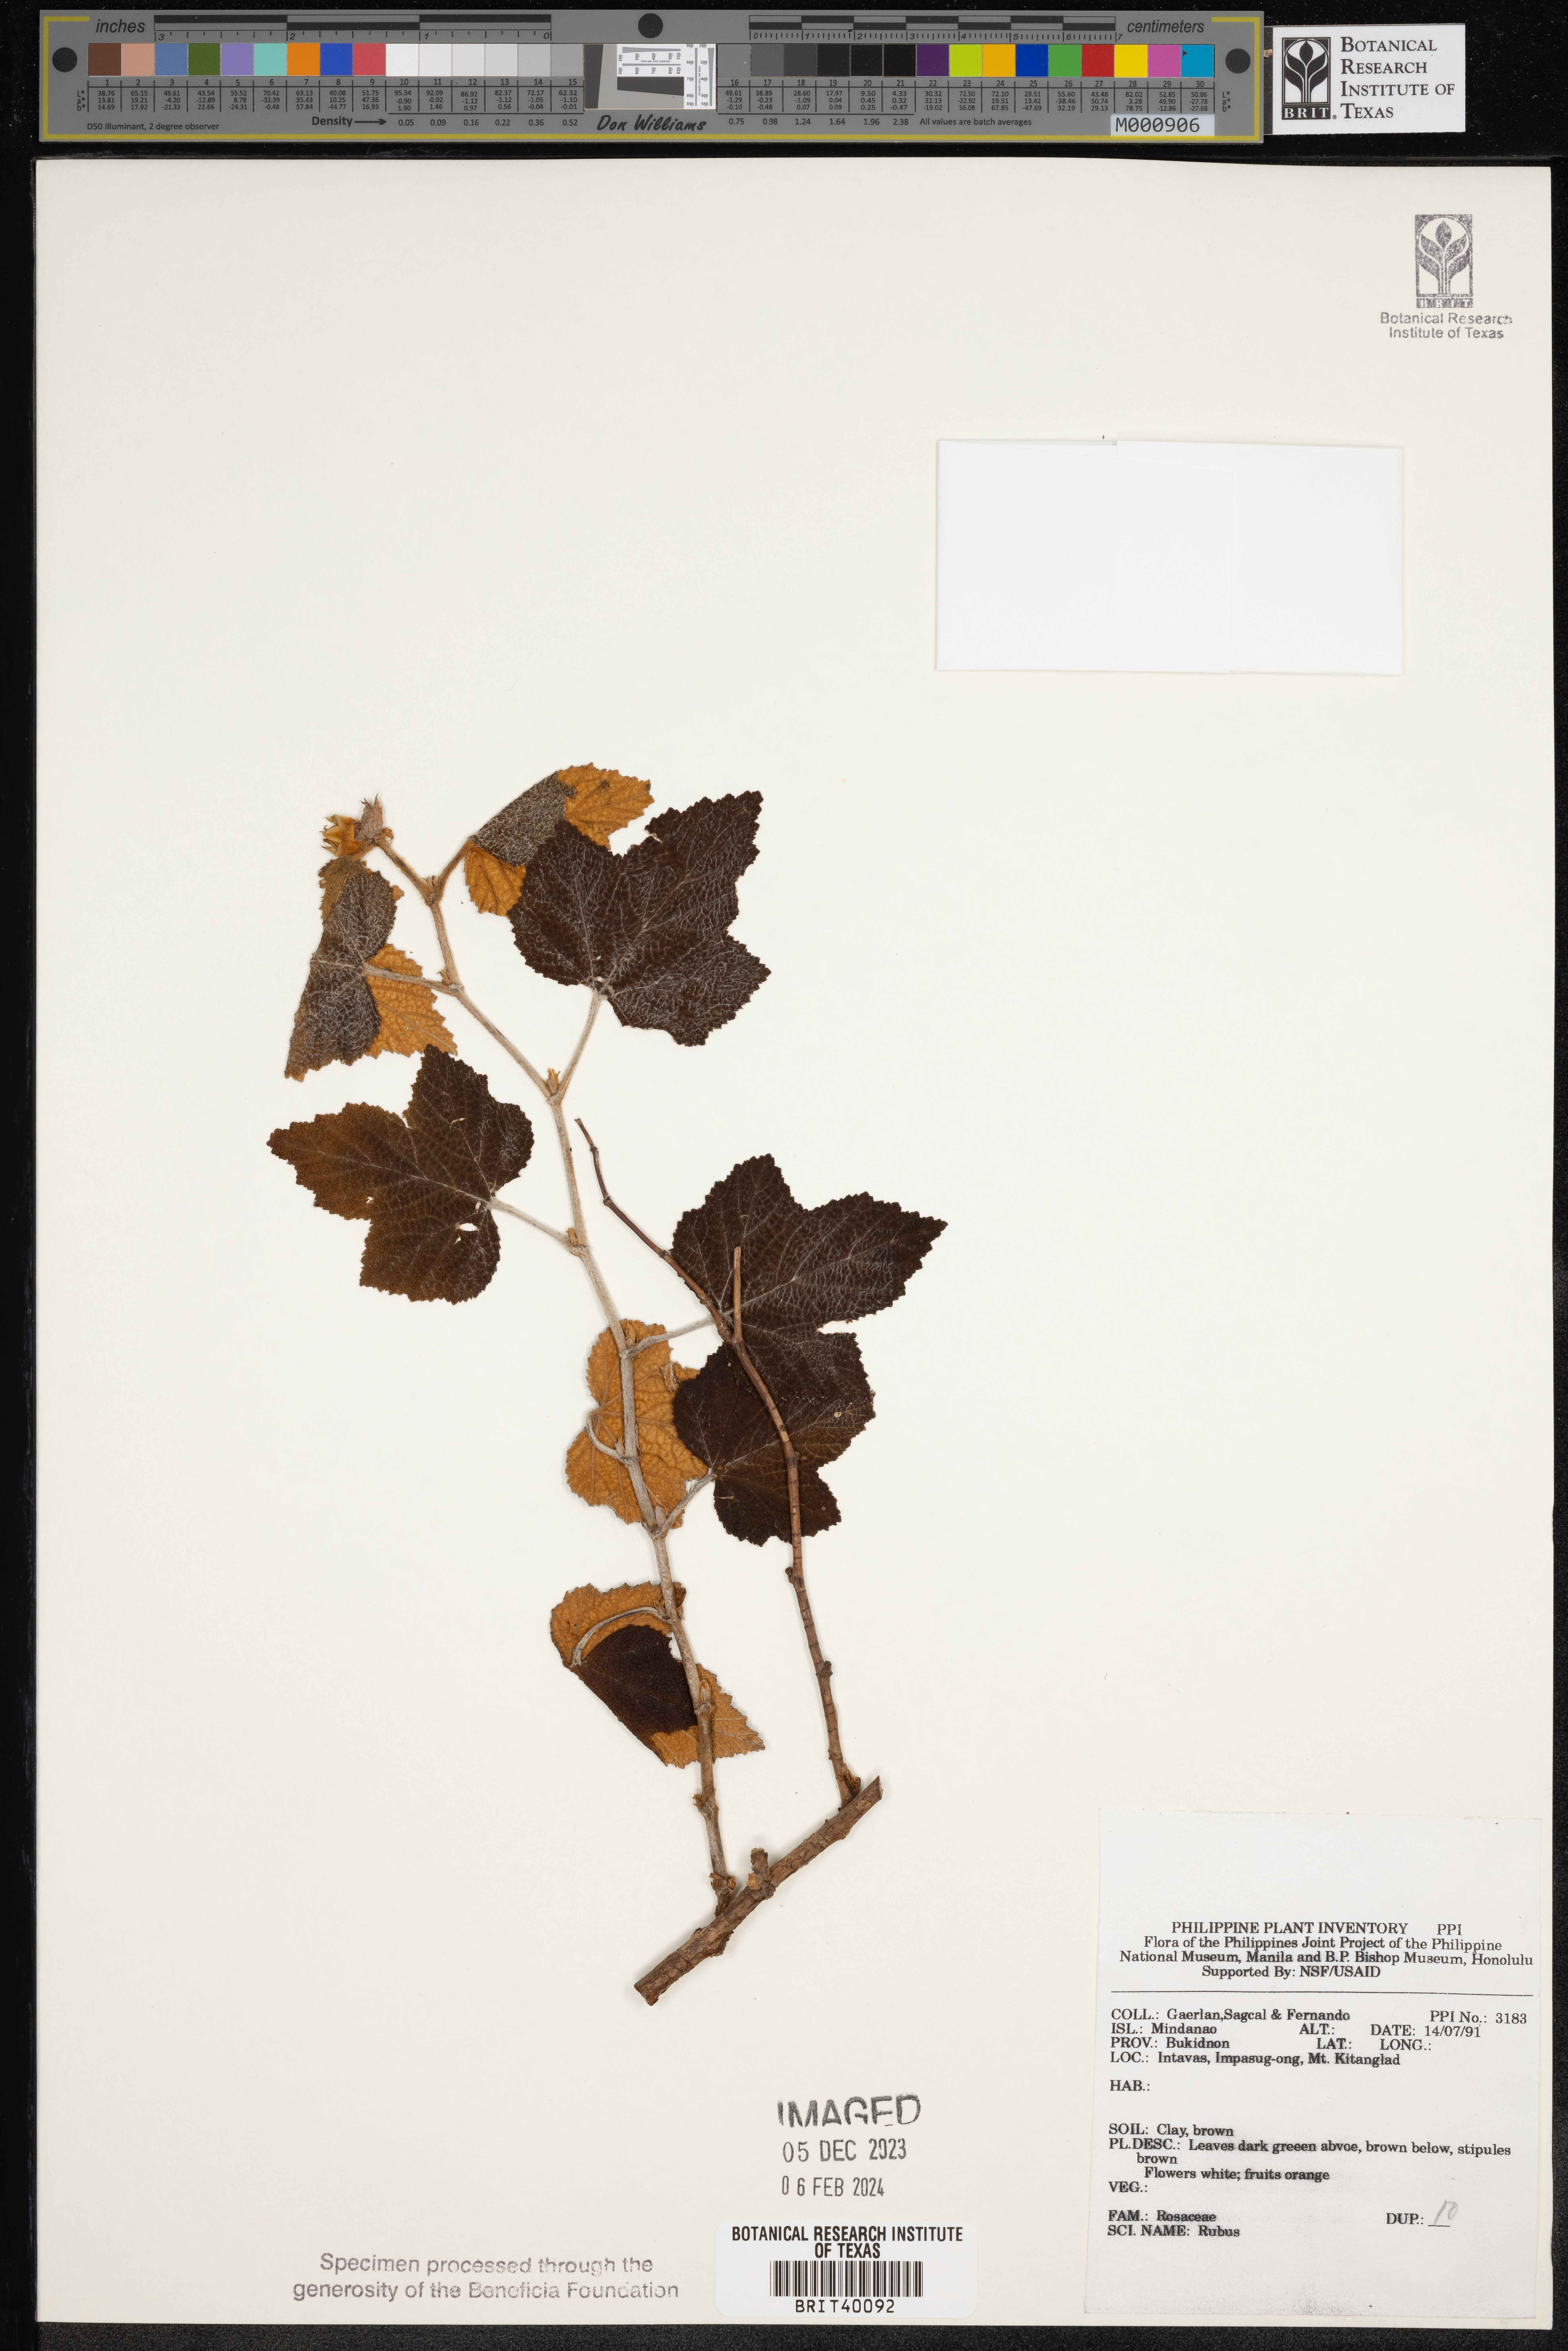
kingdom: Plantae
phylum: Tracheophyta
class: Magnoliopsida
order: Rosales
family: Rosaceae
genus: Rubus
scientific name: Rubus
